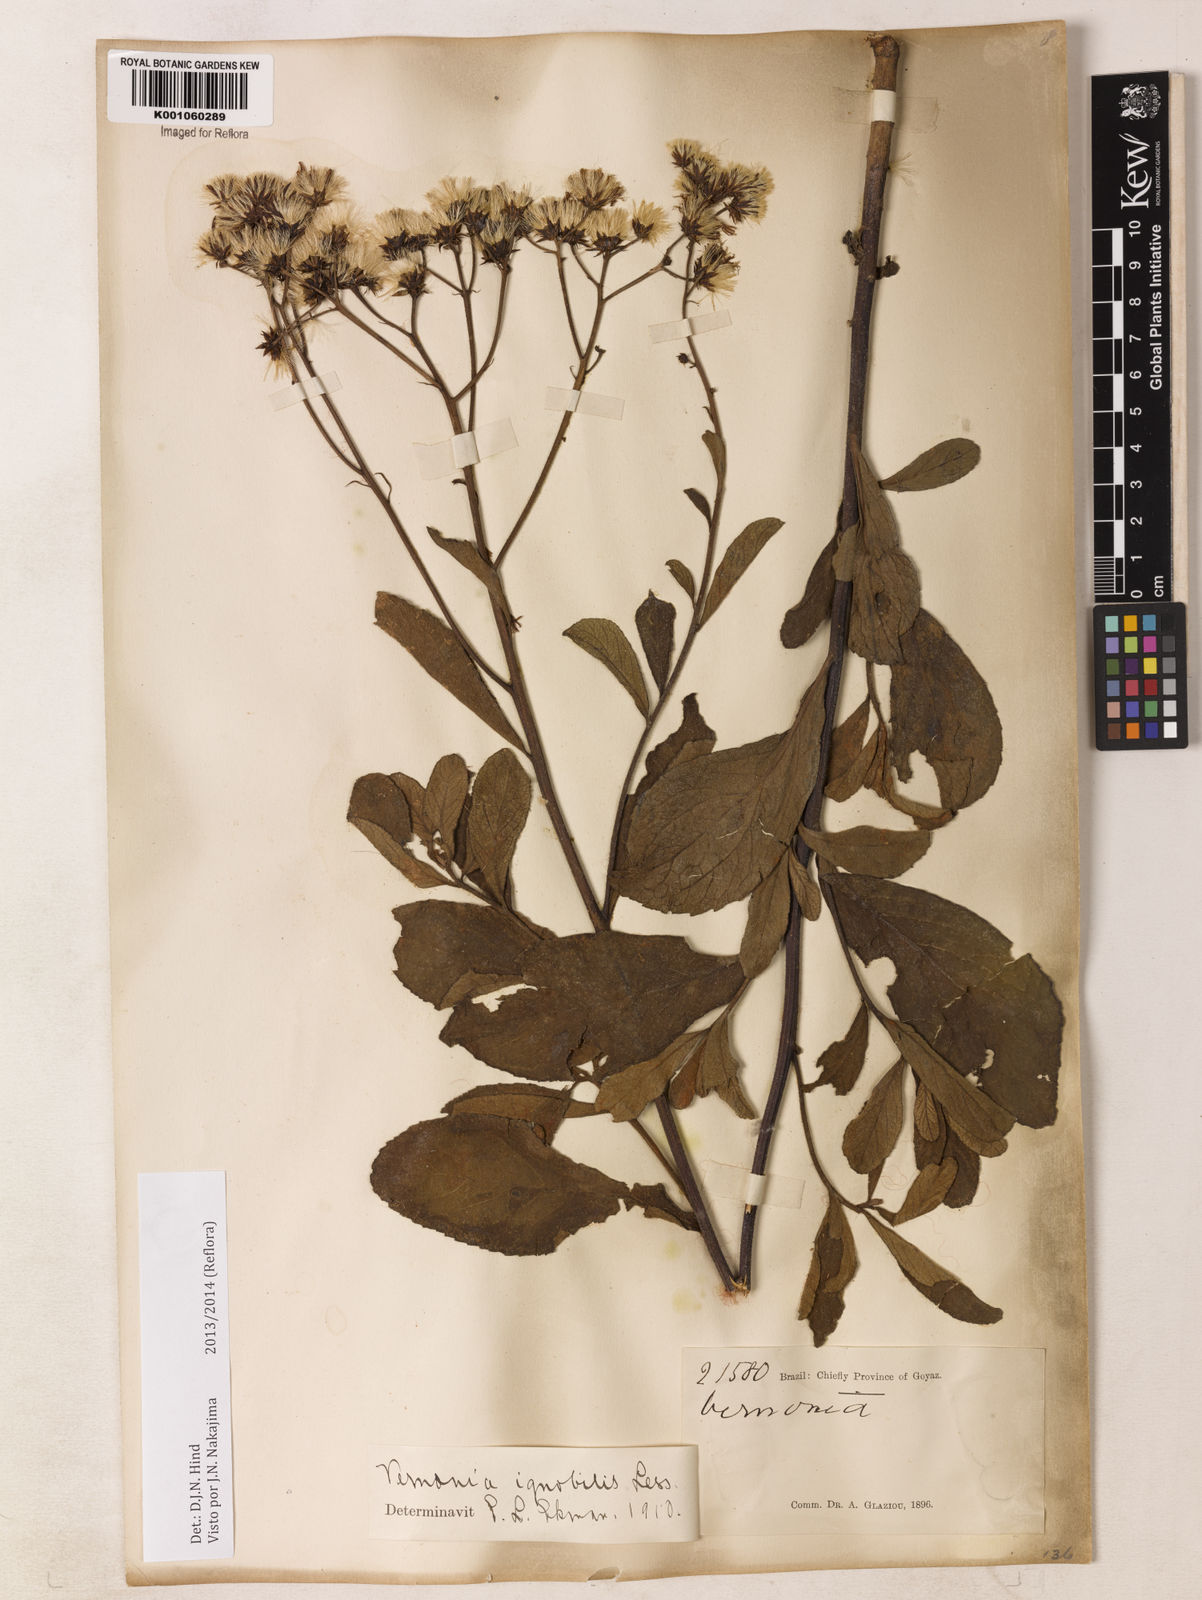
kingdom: Plantae
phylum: Tracheophyta
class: Magnoliopsida
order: Asterales
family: Asteraceae
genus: Vernonanthura
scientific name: Vernonanthura ignobilis
